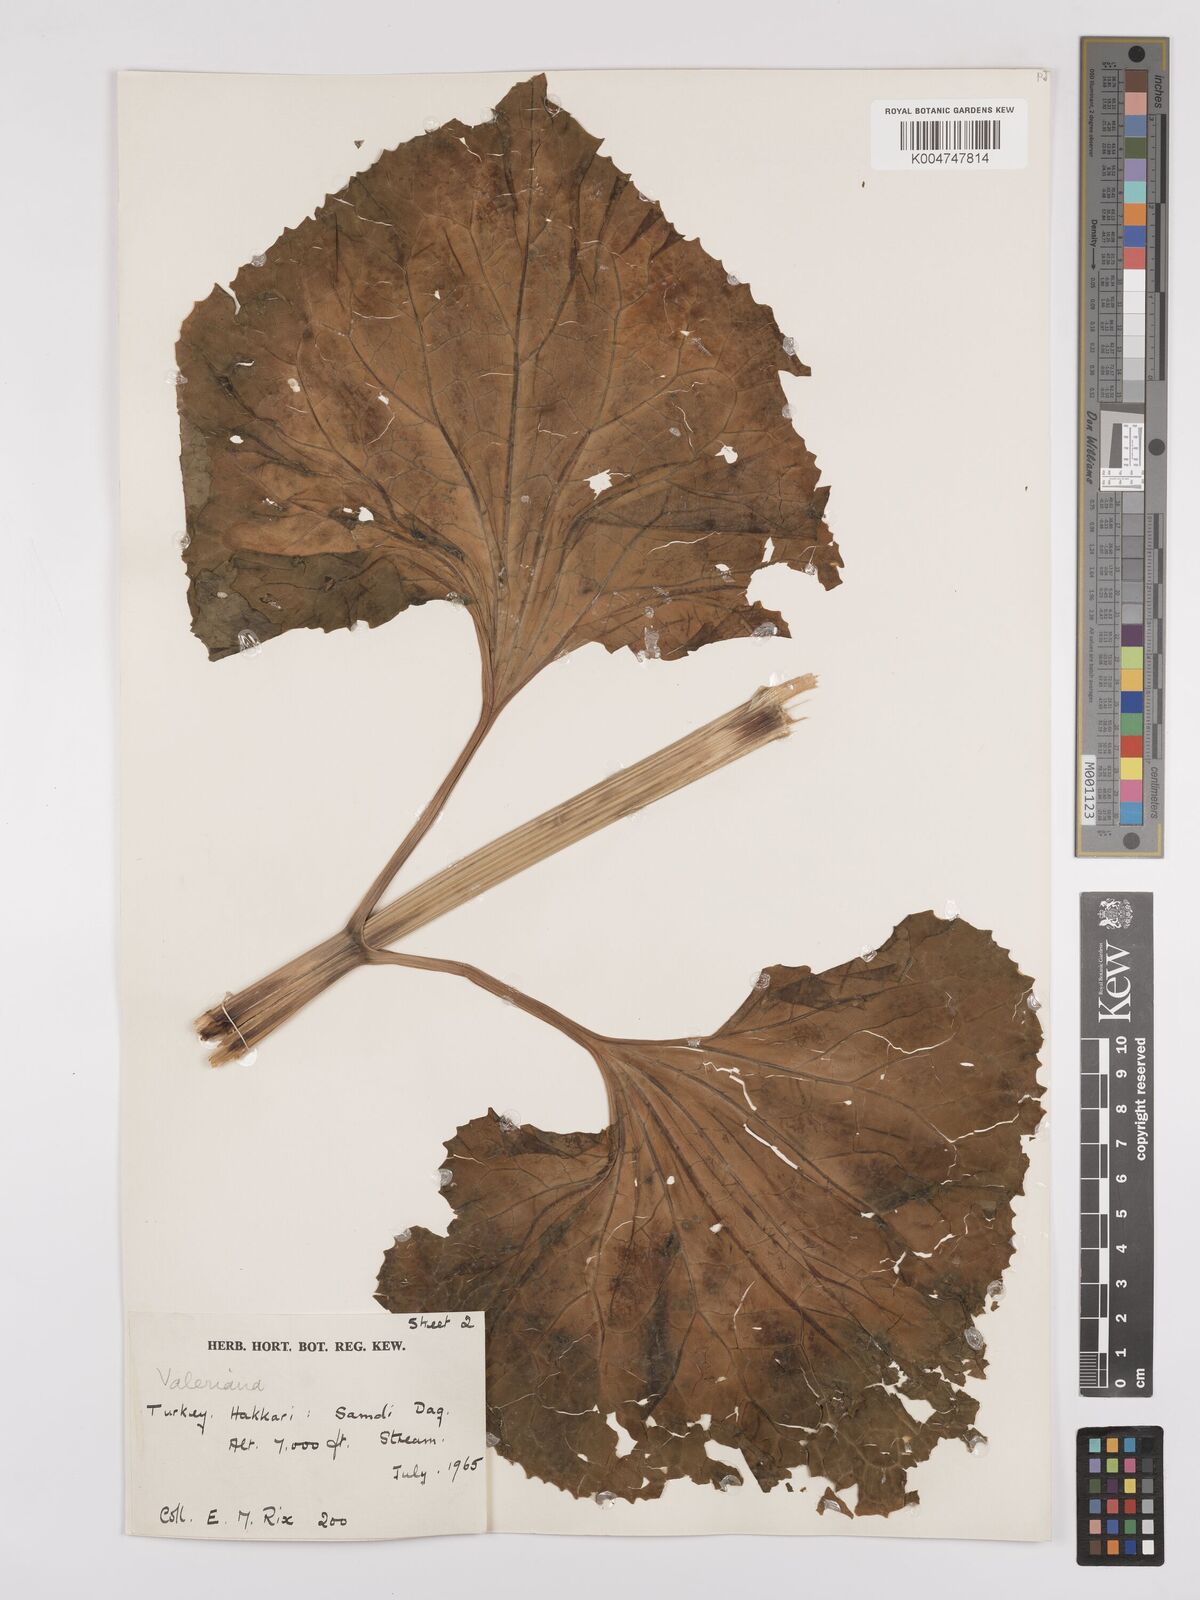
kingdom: Plantae
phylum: Tracheophyta
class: Magnoliopsida
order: Dipsacales
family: Caprifoliaceae
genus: Valeriana
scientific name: Valeriana
